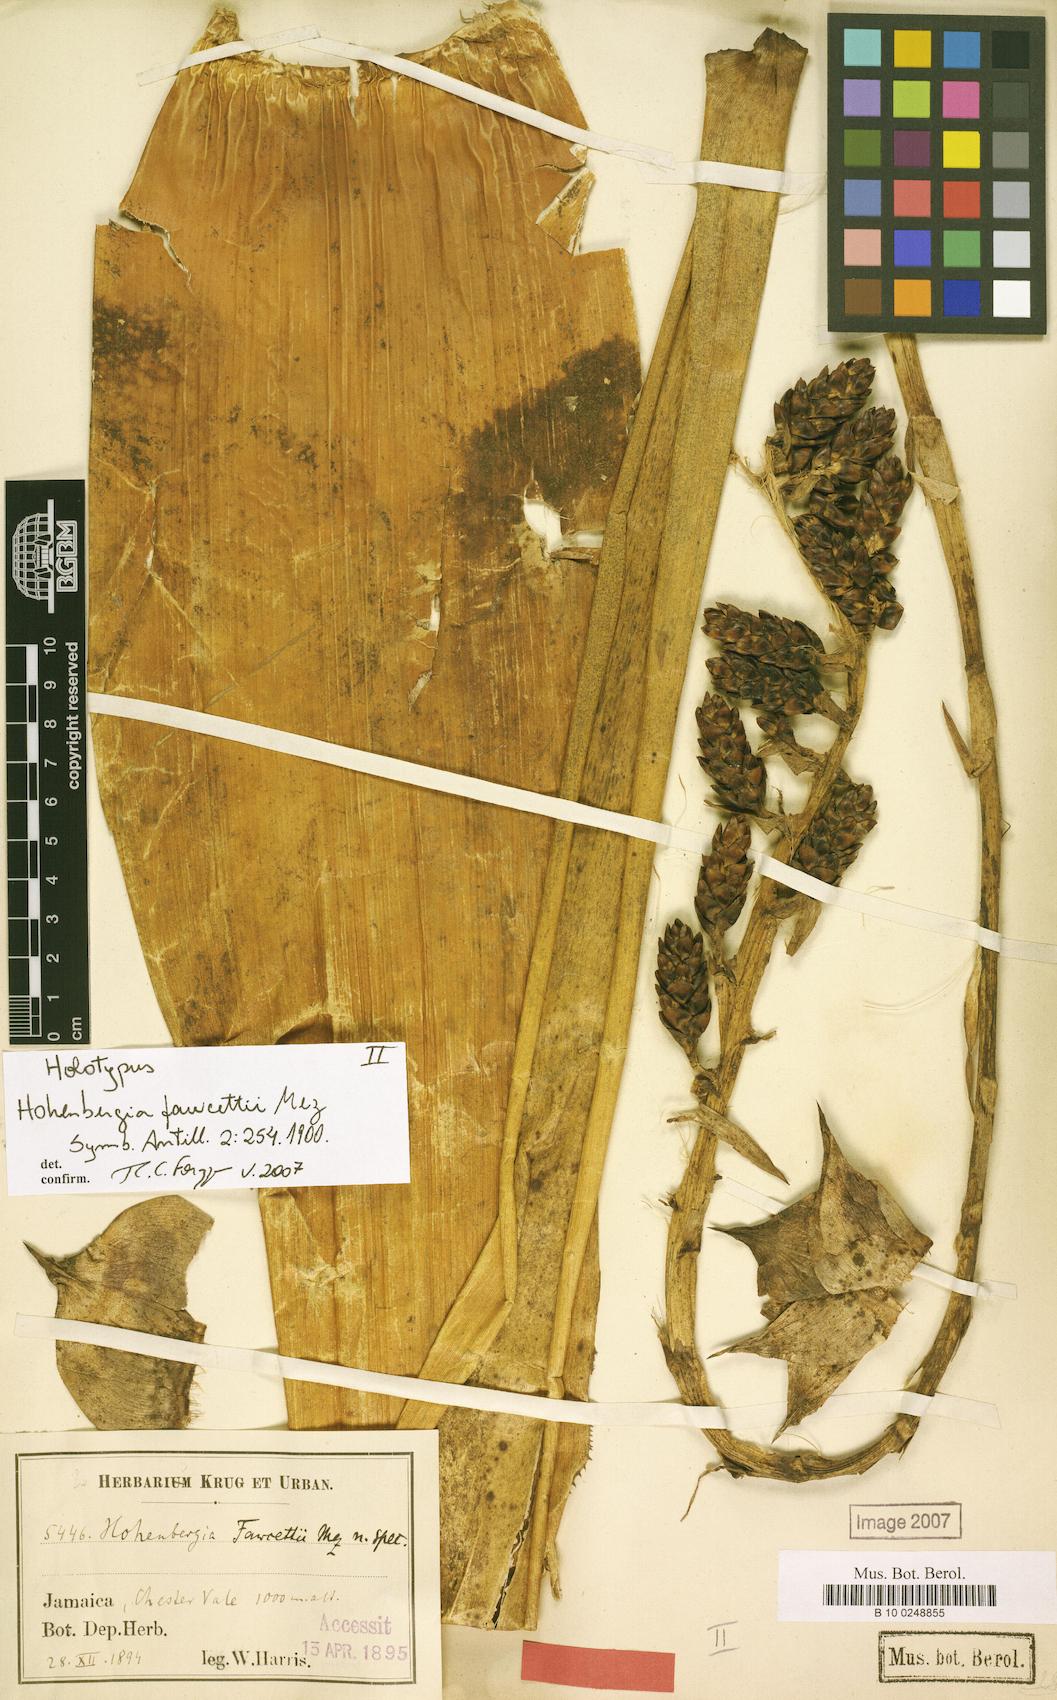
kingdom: Plantae
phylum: Tracheophyta
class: Liliopsida
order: Poales
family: Bromeliaceae
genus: Wittmackia
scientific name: Wittmackia fawcettii
